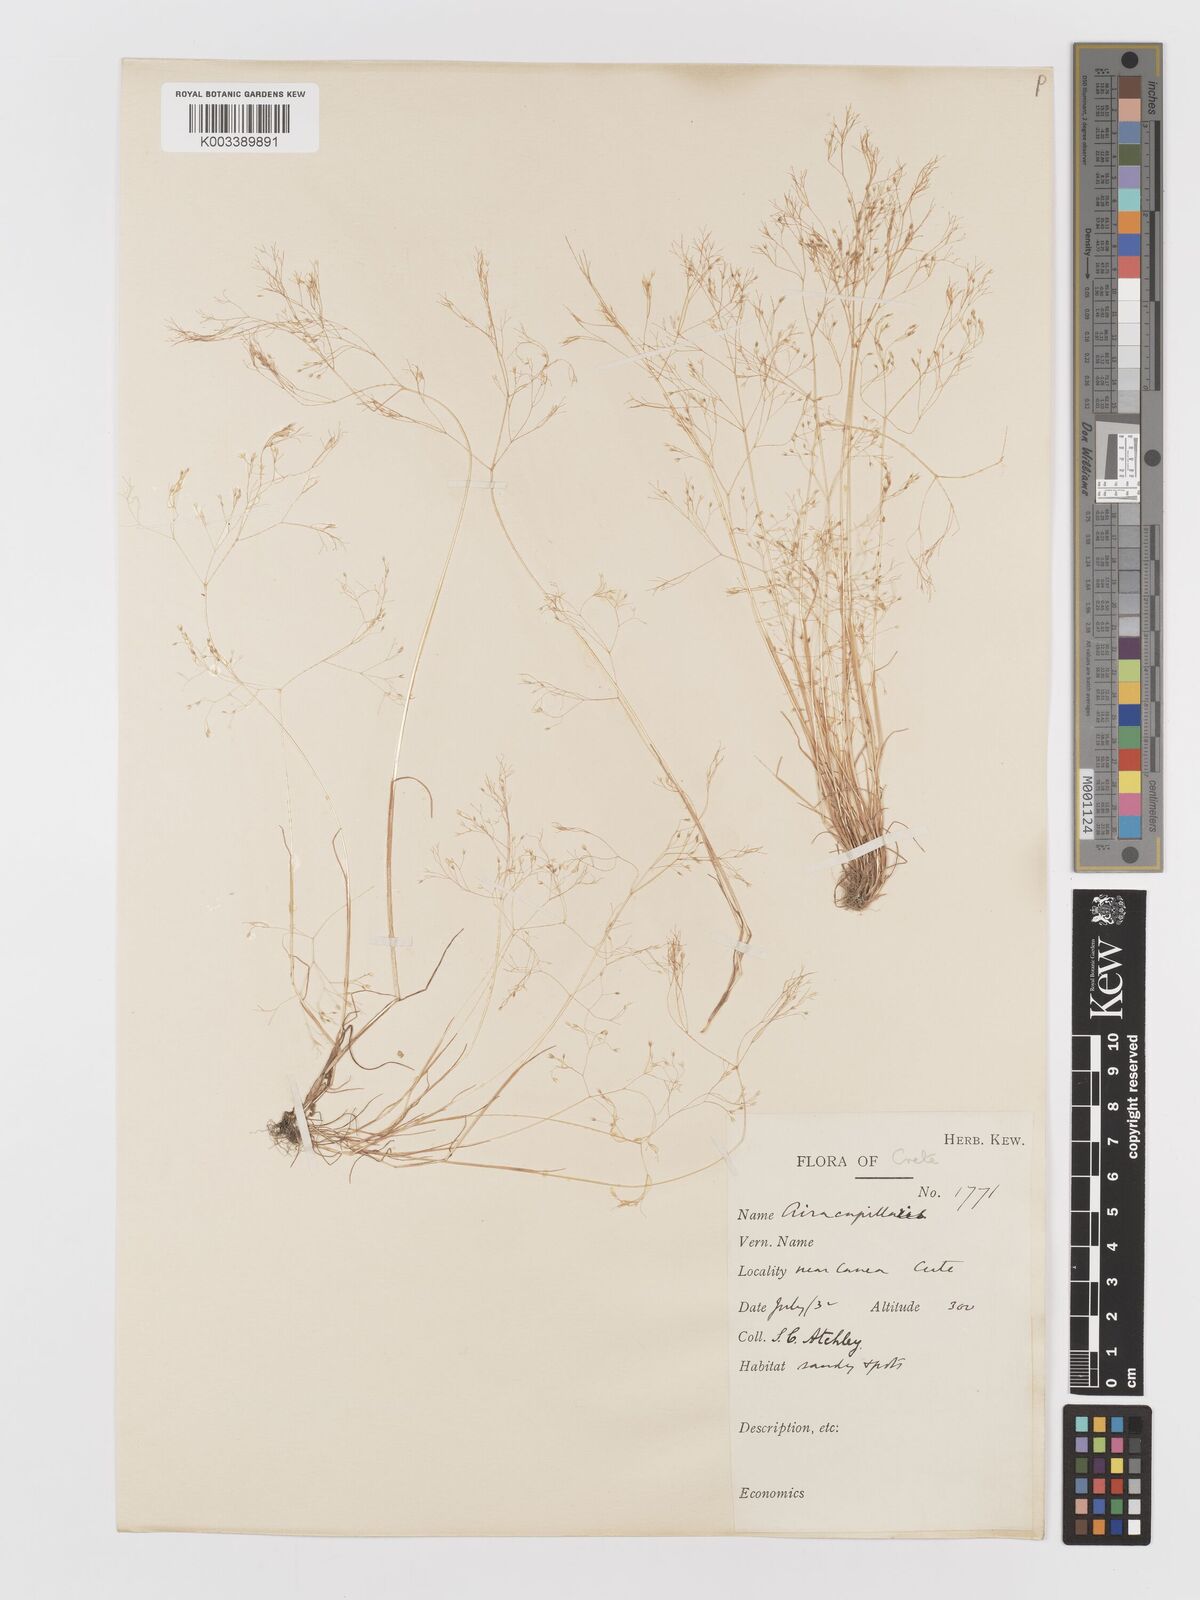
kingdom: Plantae
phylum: Tracheophyta
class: Liliopsida
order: Poales
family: Poaceae
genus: Aira
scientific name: Aira elegans
